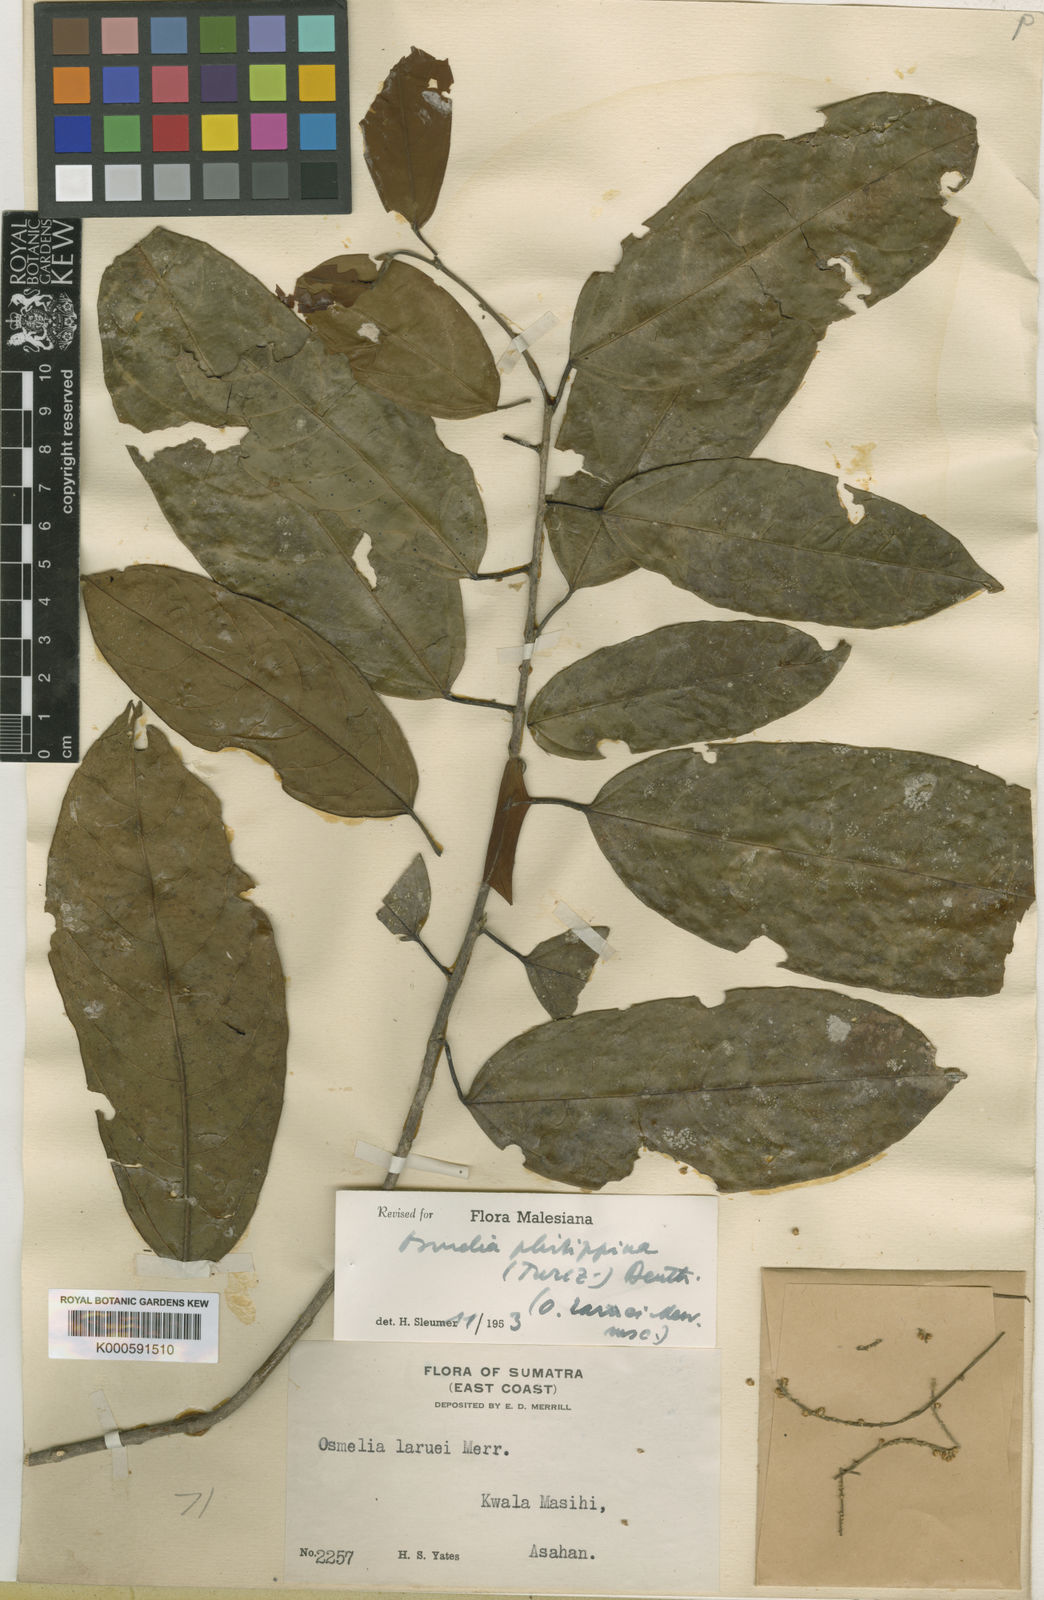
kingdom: Plantae
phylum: Tracheophyta
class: Magnoliopsida
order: Malpighiales
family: Salicaceae
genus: Osmelia
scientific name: Osmelia
